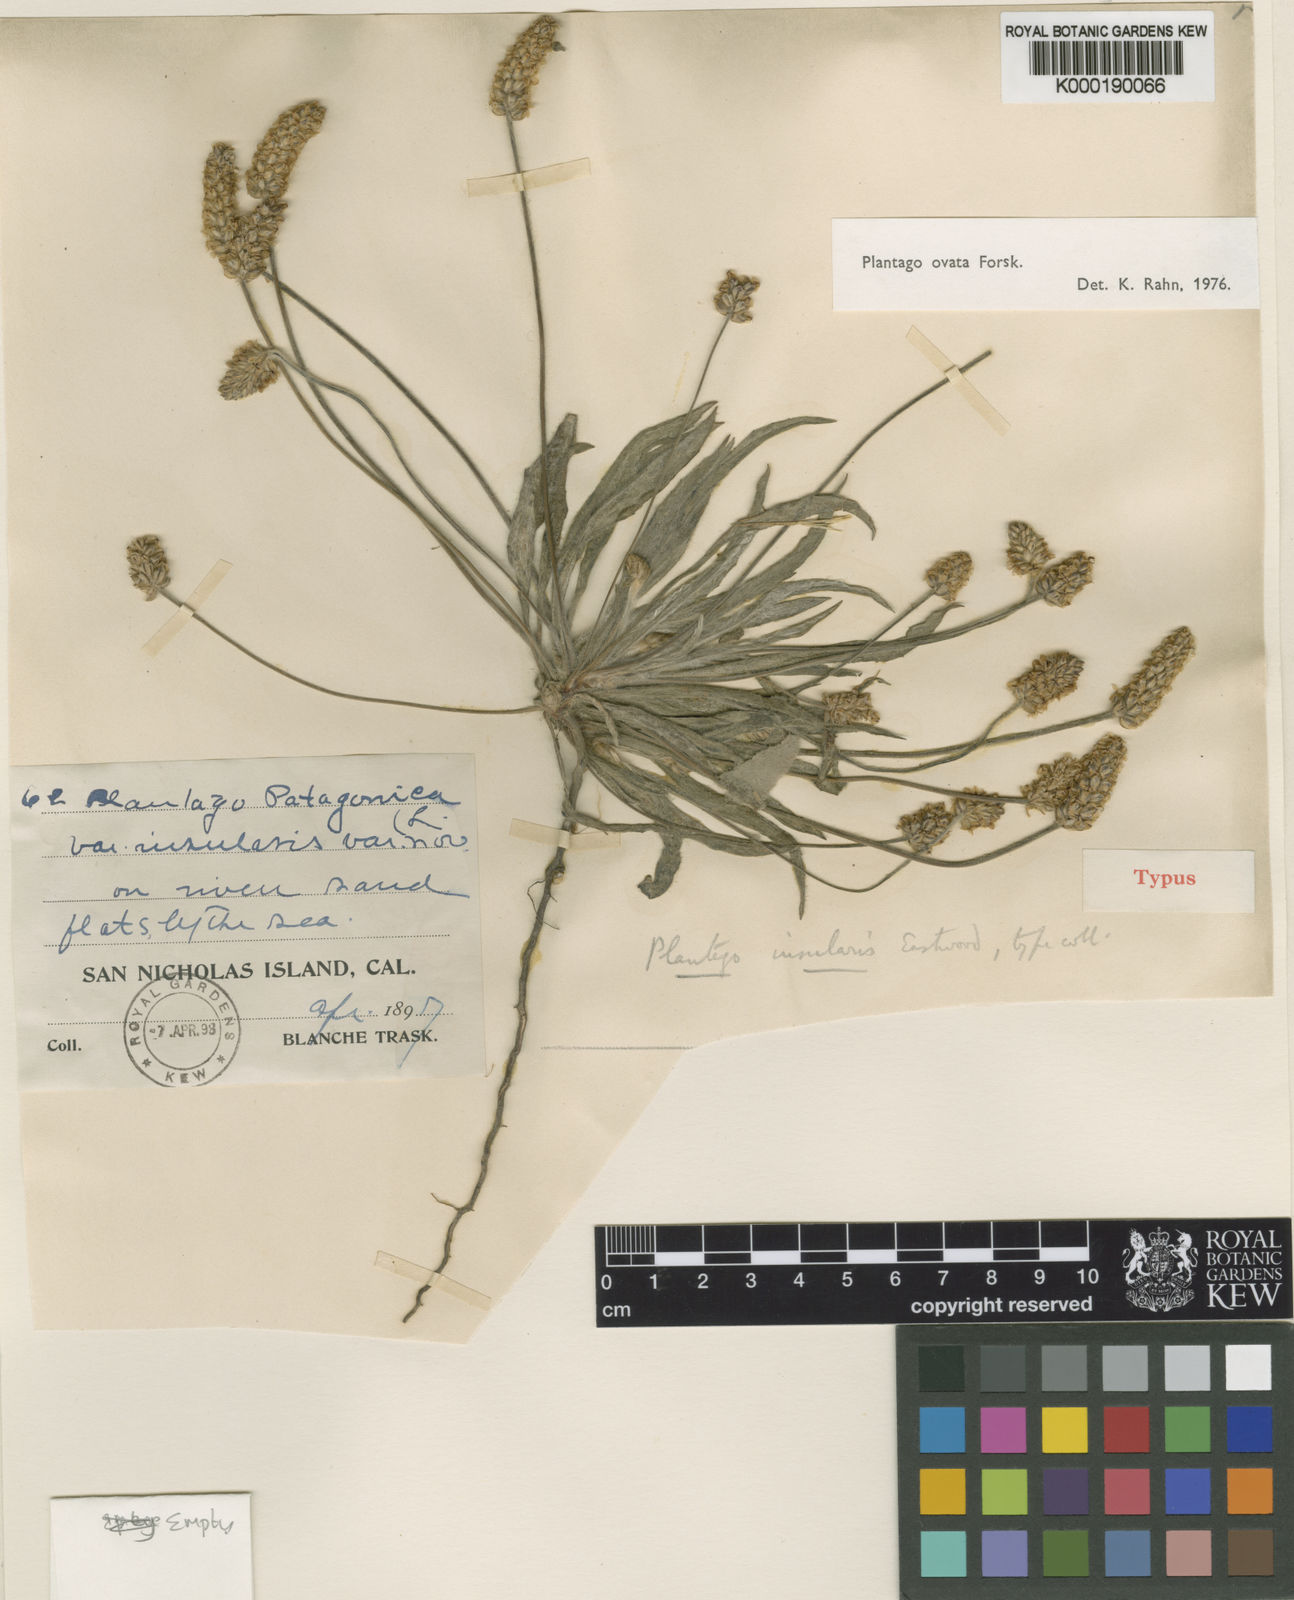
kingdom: Plantae
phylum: Tracheophyta
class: Magnoliopsida
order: Lamiales
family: Plantaginaceae
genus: Plantago
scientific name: Plantago ovata
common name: Blond plantain
